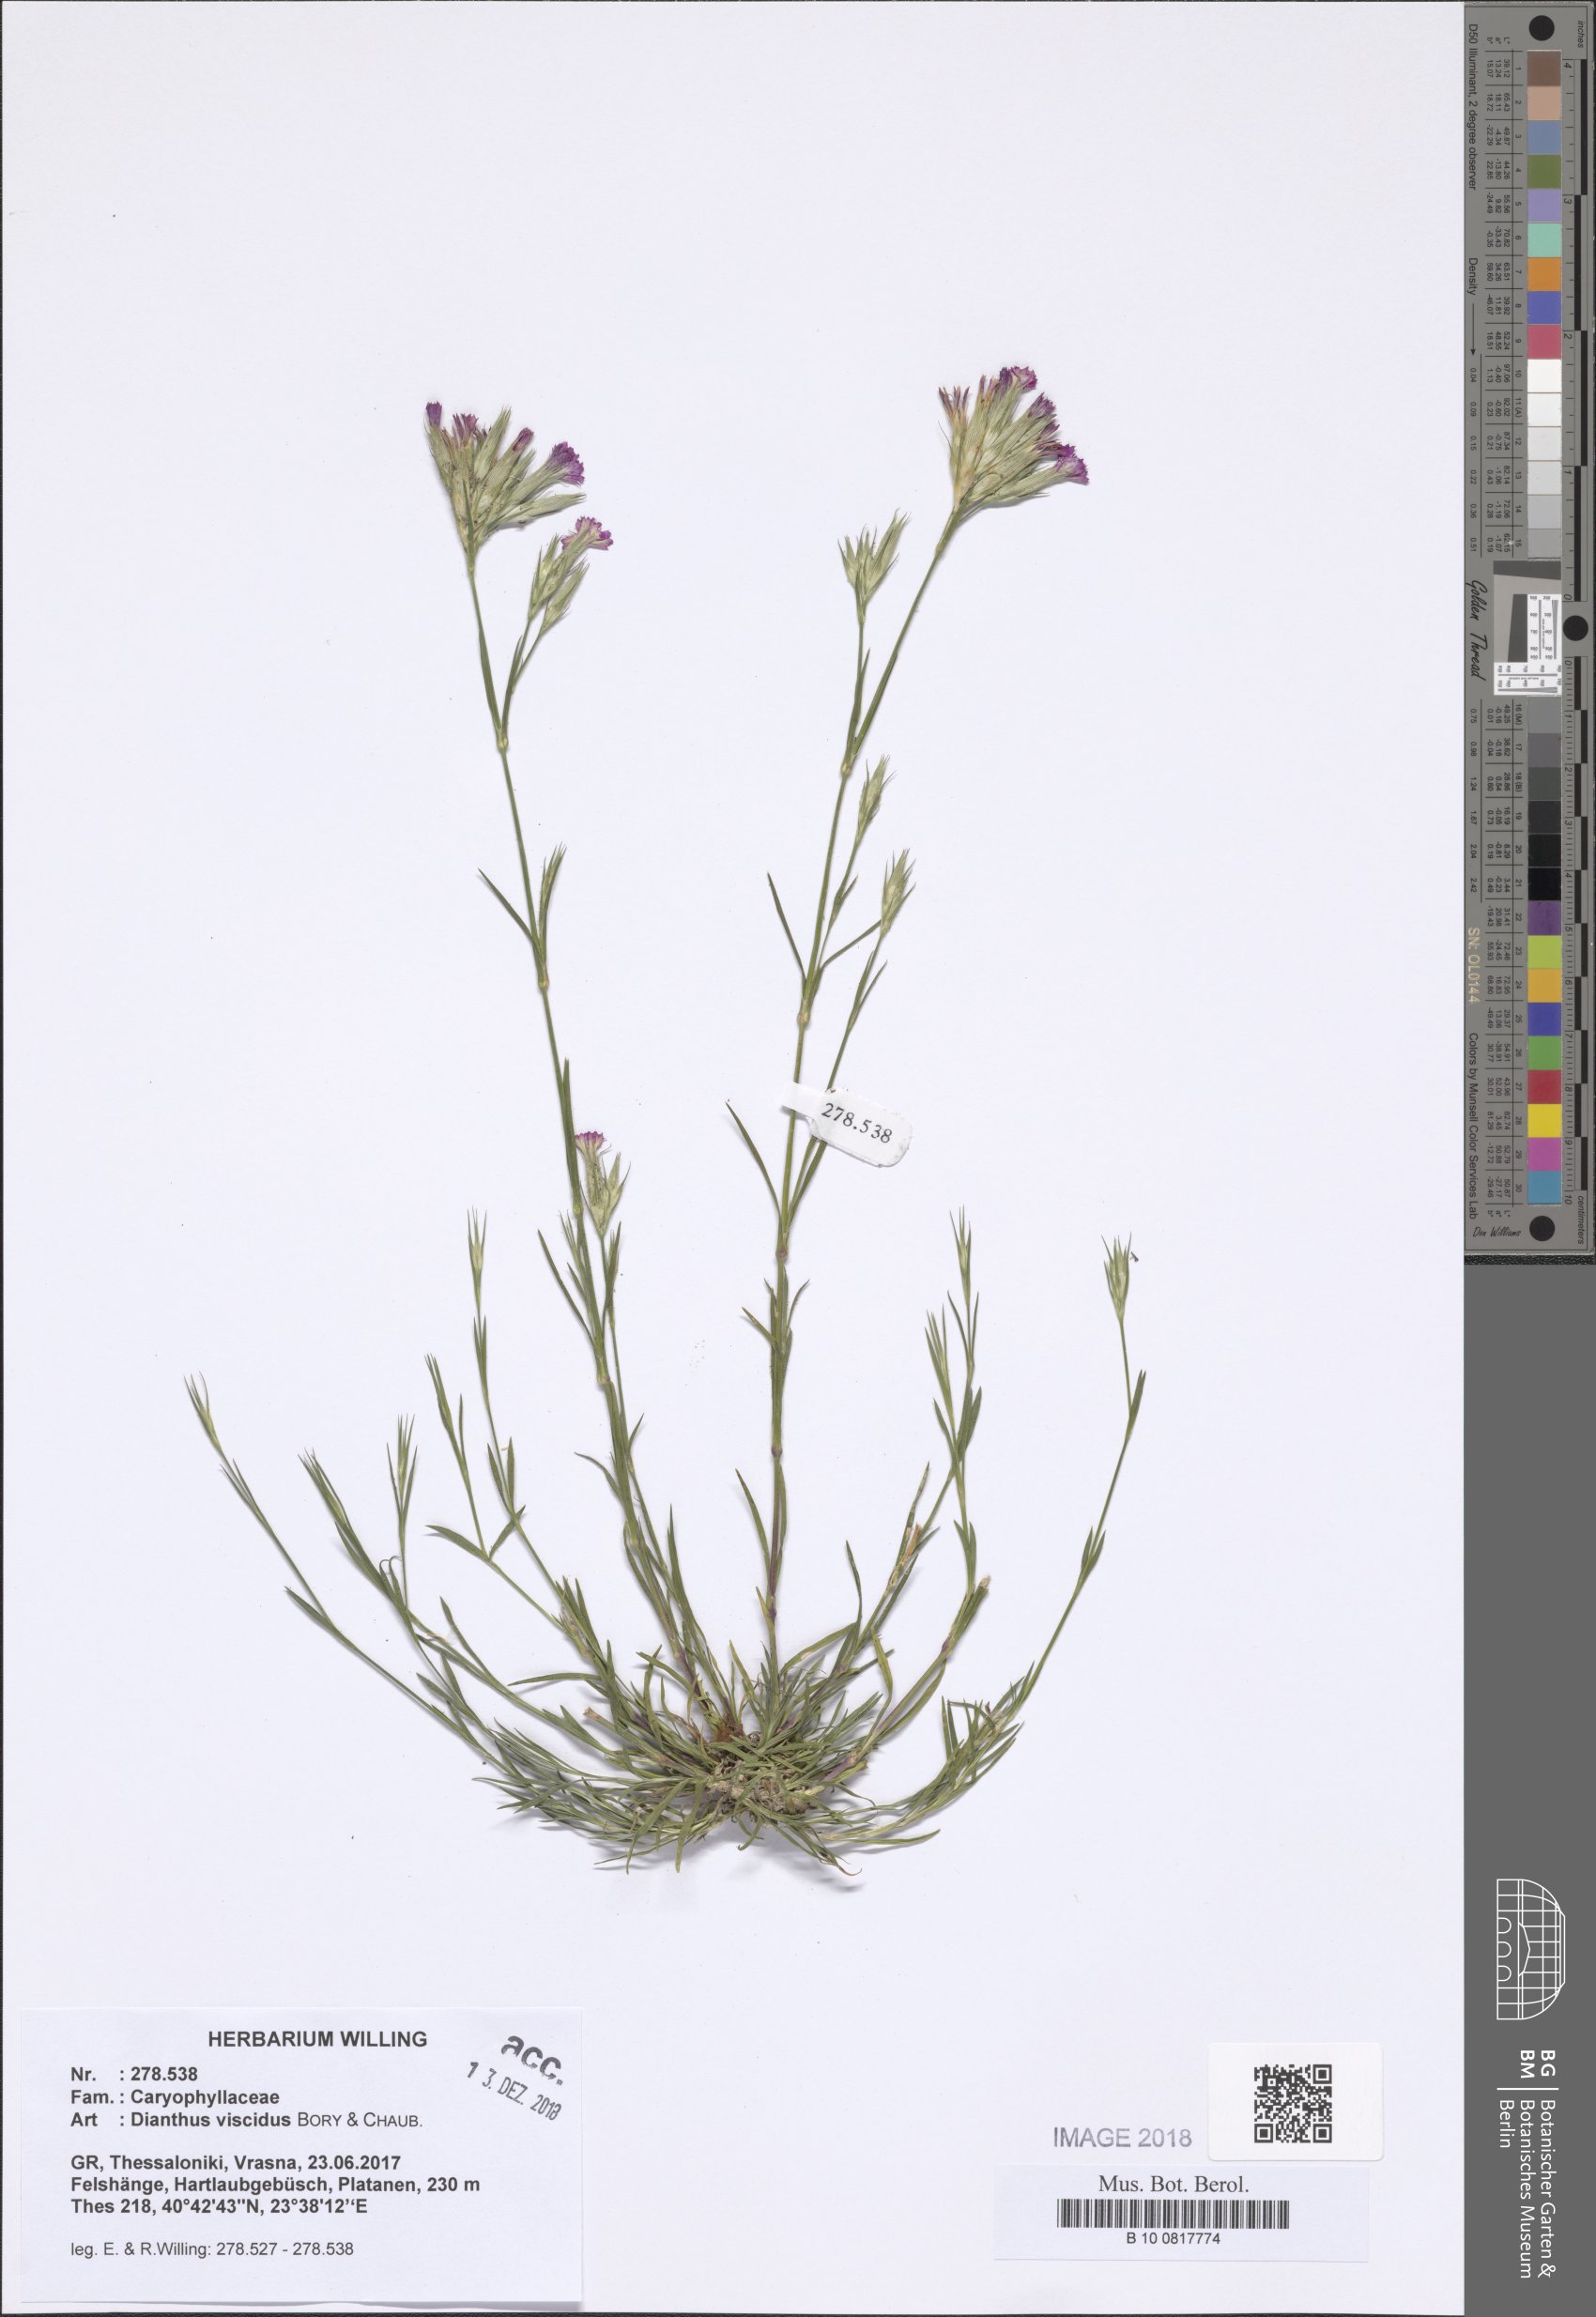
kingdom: Plantae
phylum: Tracheophyta
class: Magnoliopsida
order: Caryophyllales
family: Caryophyllaceae
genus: Dianthus
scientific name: Dianthus viscidus
